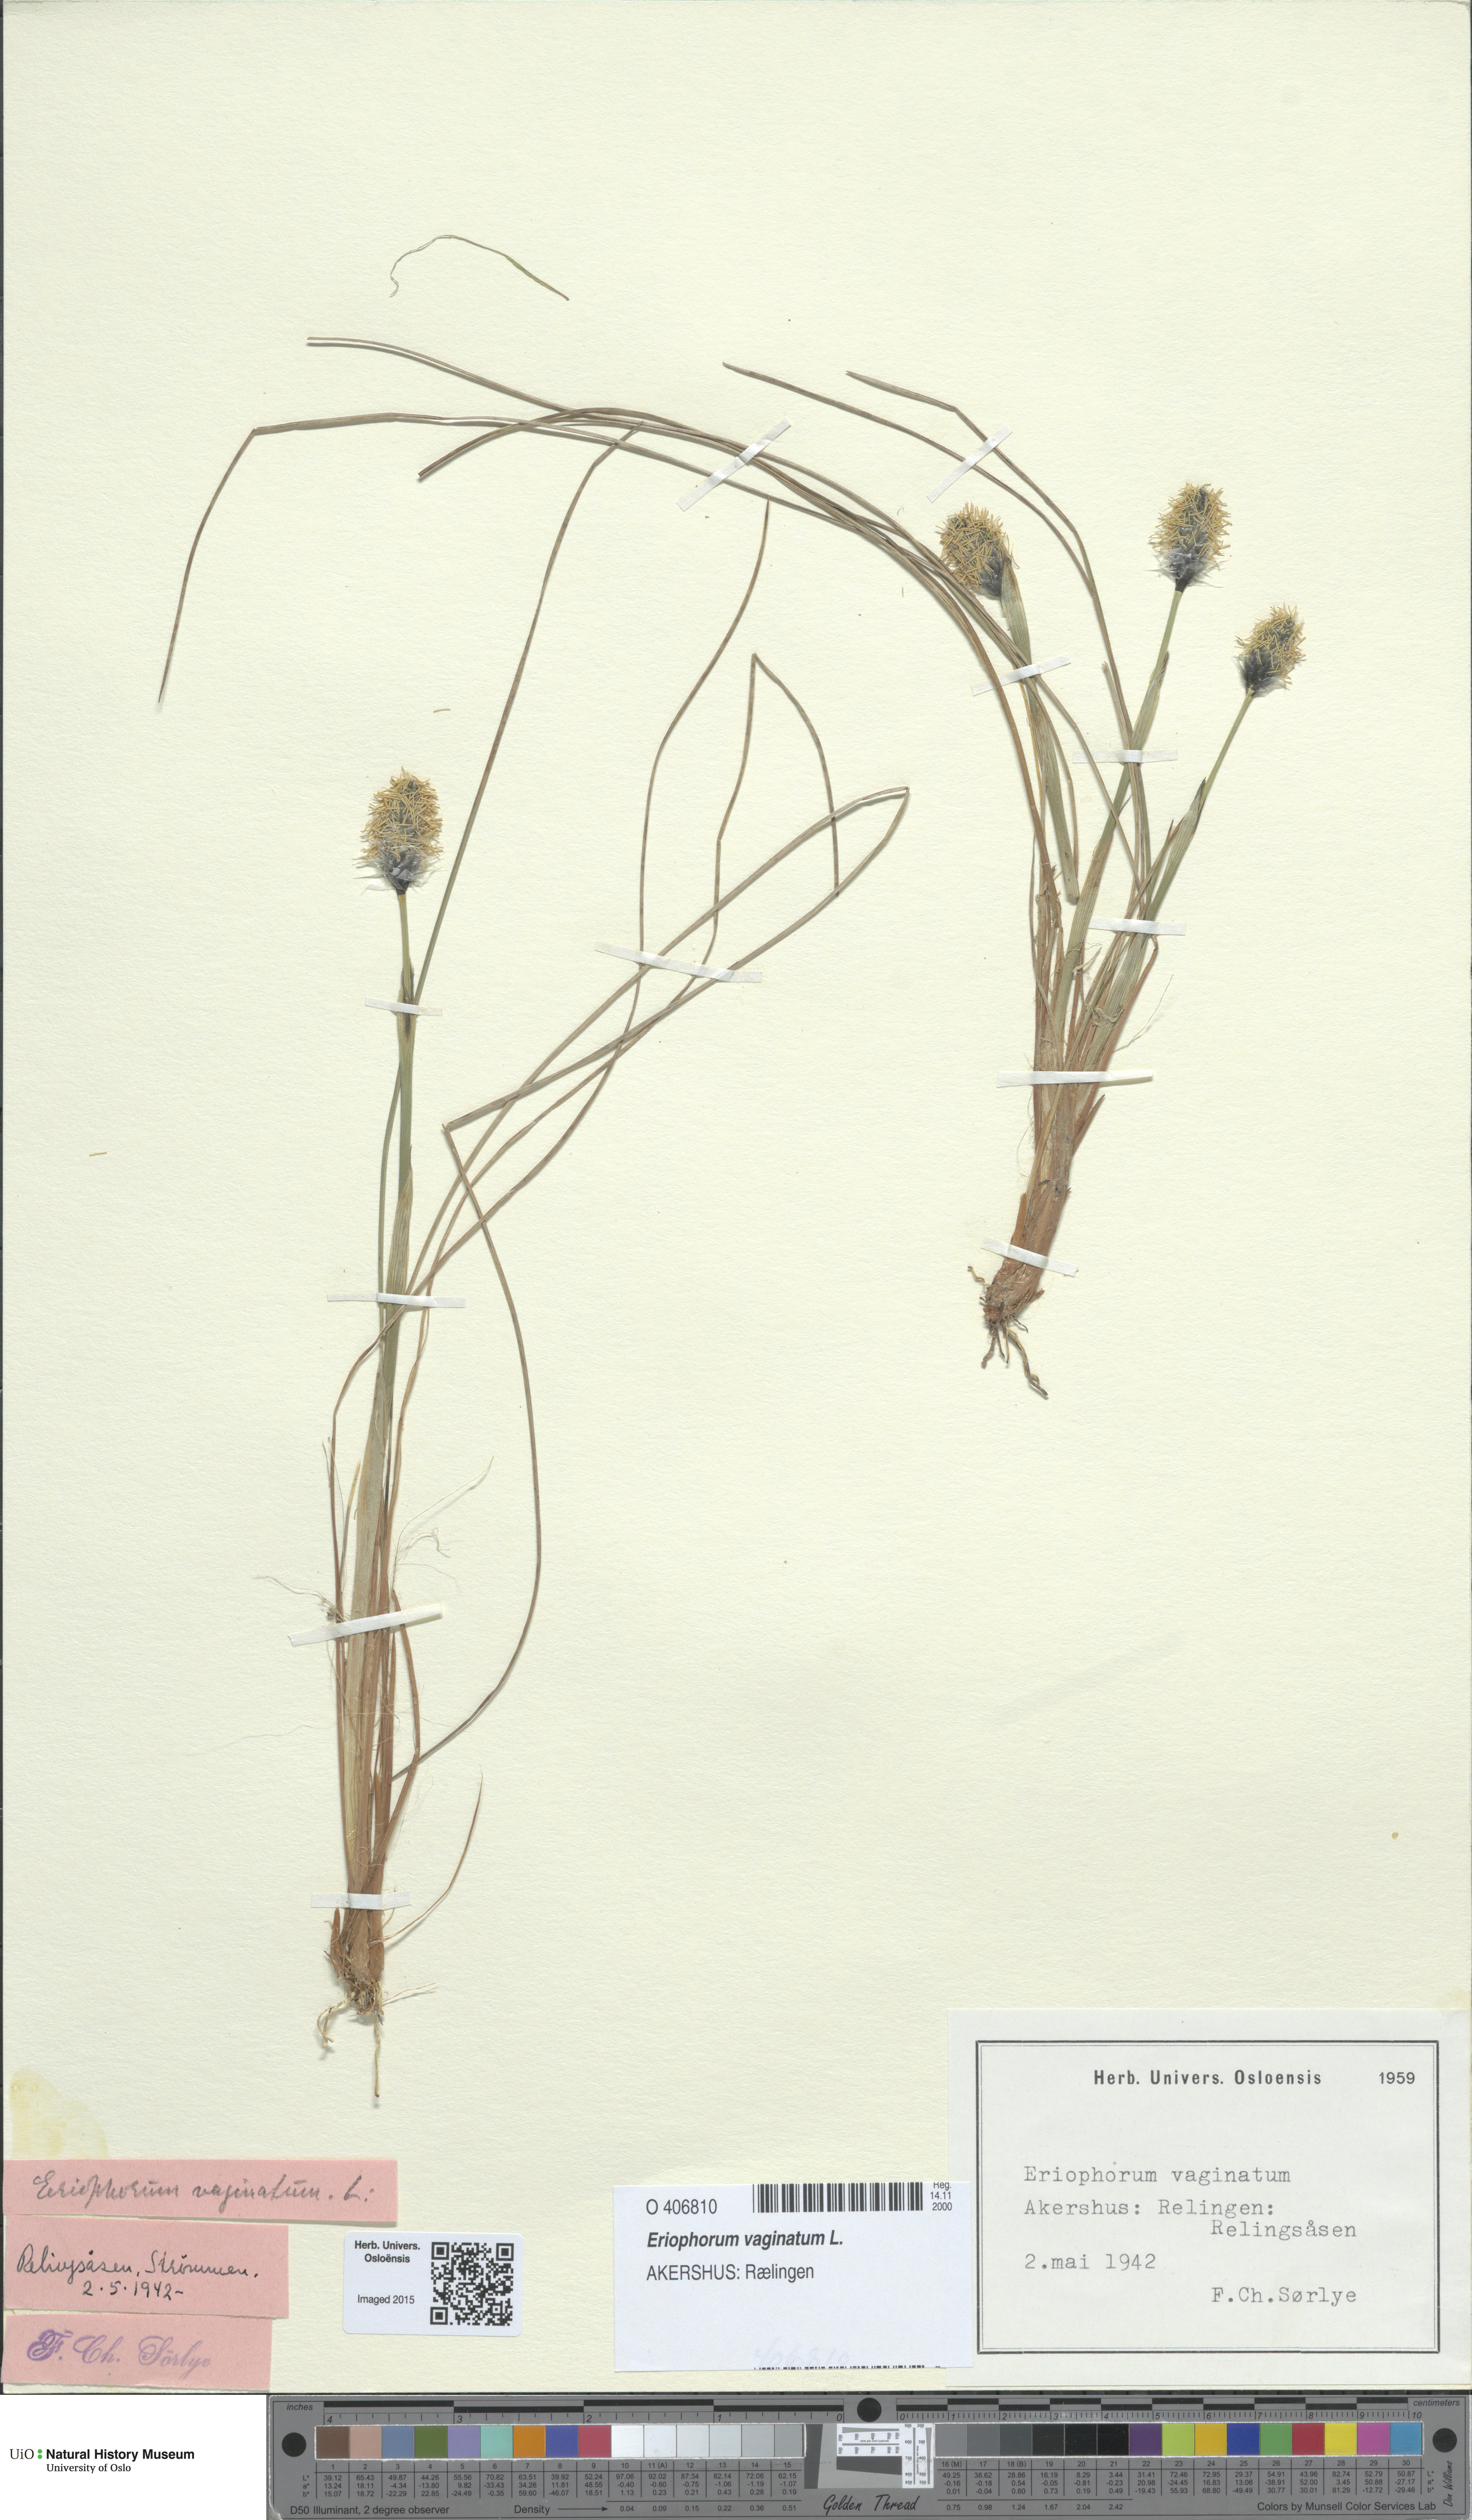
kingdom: Plantae
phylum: Tracheophyta
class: Liliopsida
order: Poales
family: Cyperaceae
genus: Eriophorum
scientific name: Eriophorum vaginatum
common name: Hare's-tail cottongrass
